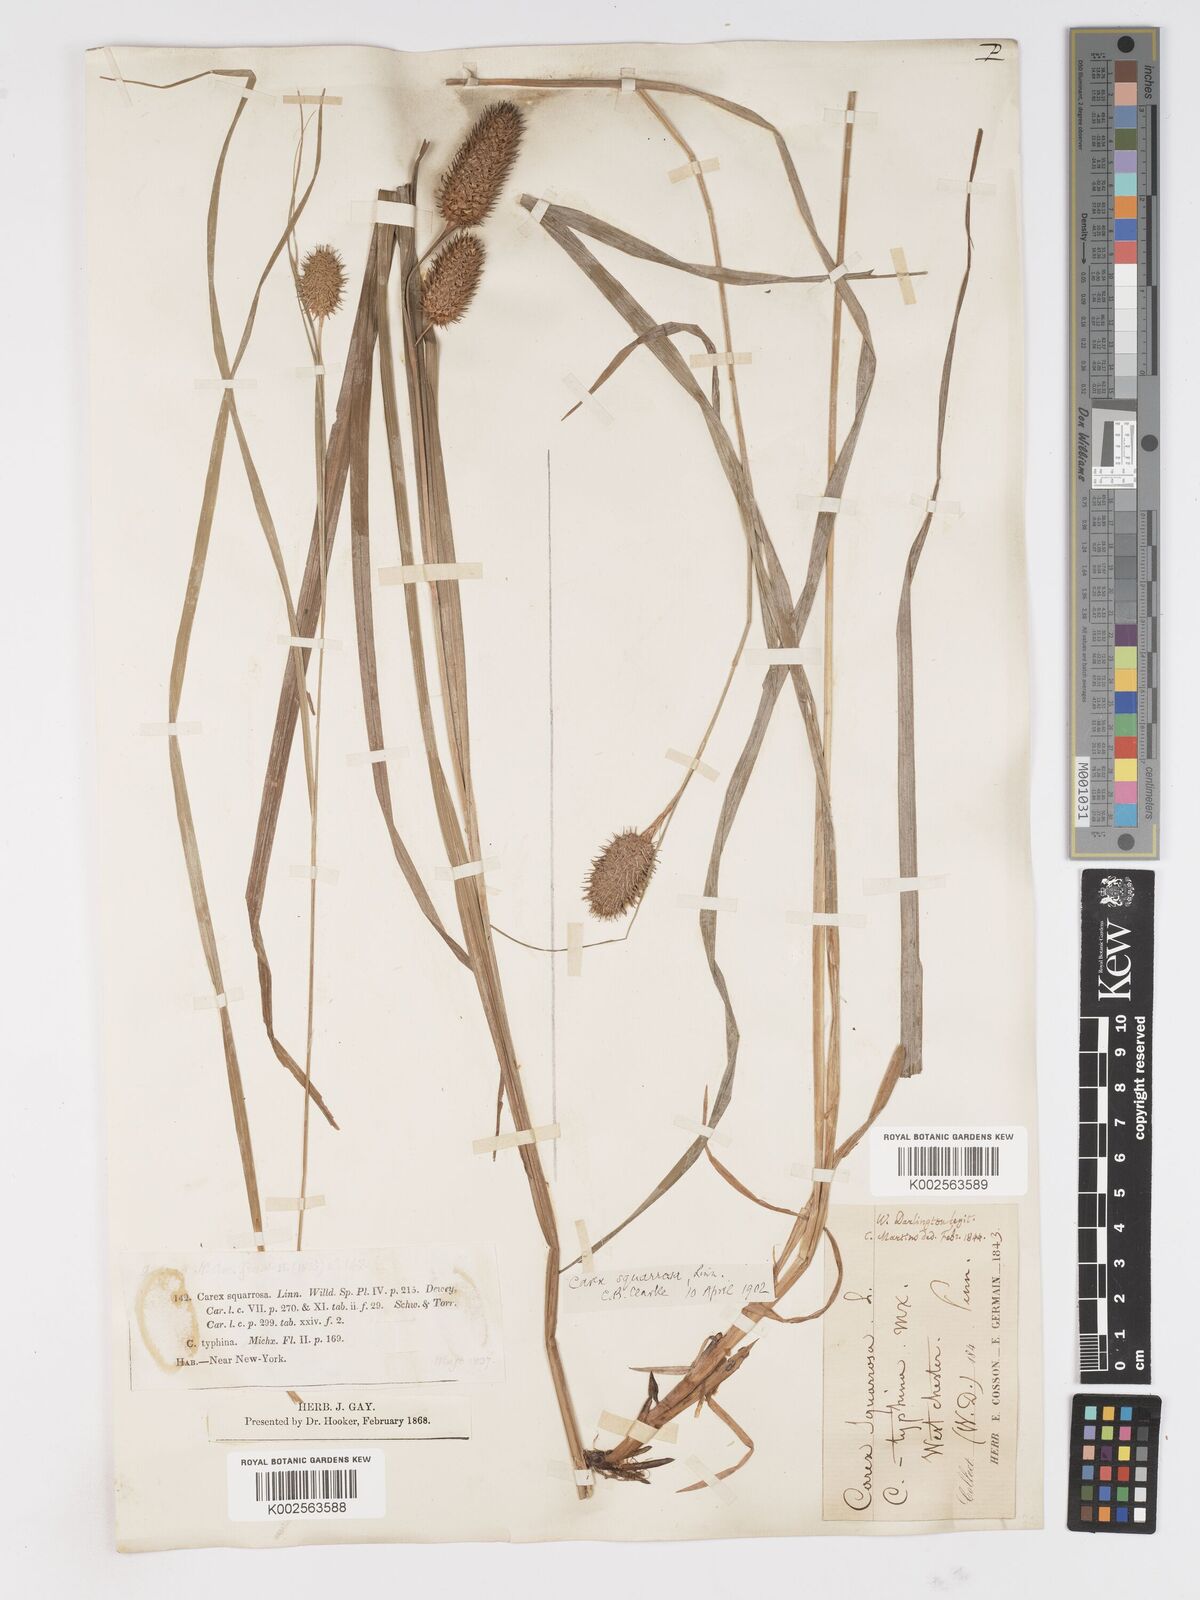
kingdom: Plantae
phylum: Tracheophyta
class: Liliopsida
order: Poales
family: Cyperaceae
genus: Carex
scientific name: Carex typhina
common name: Cattail sedge
